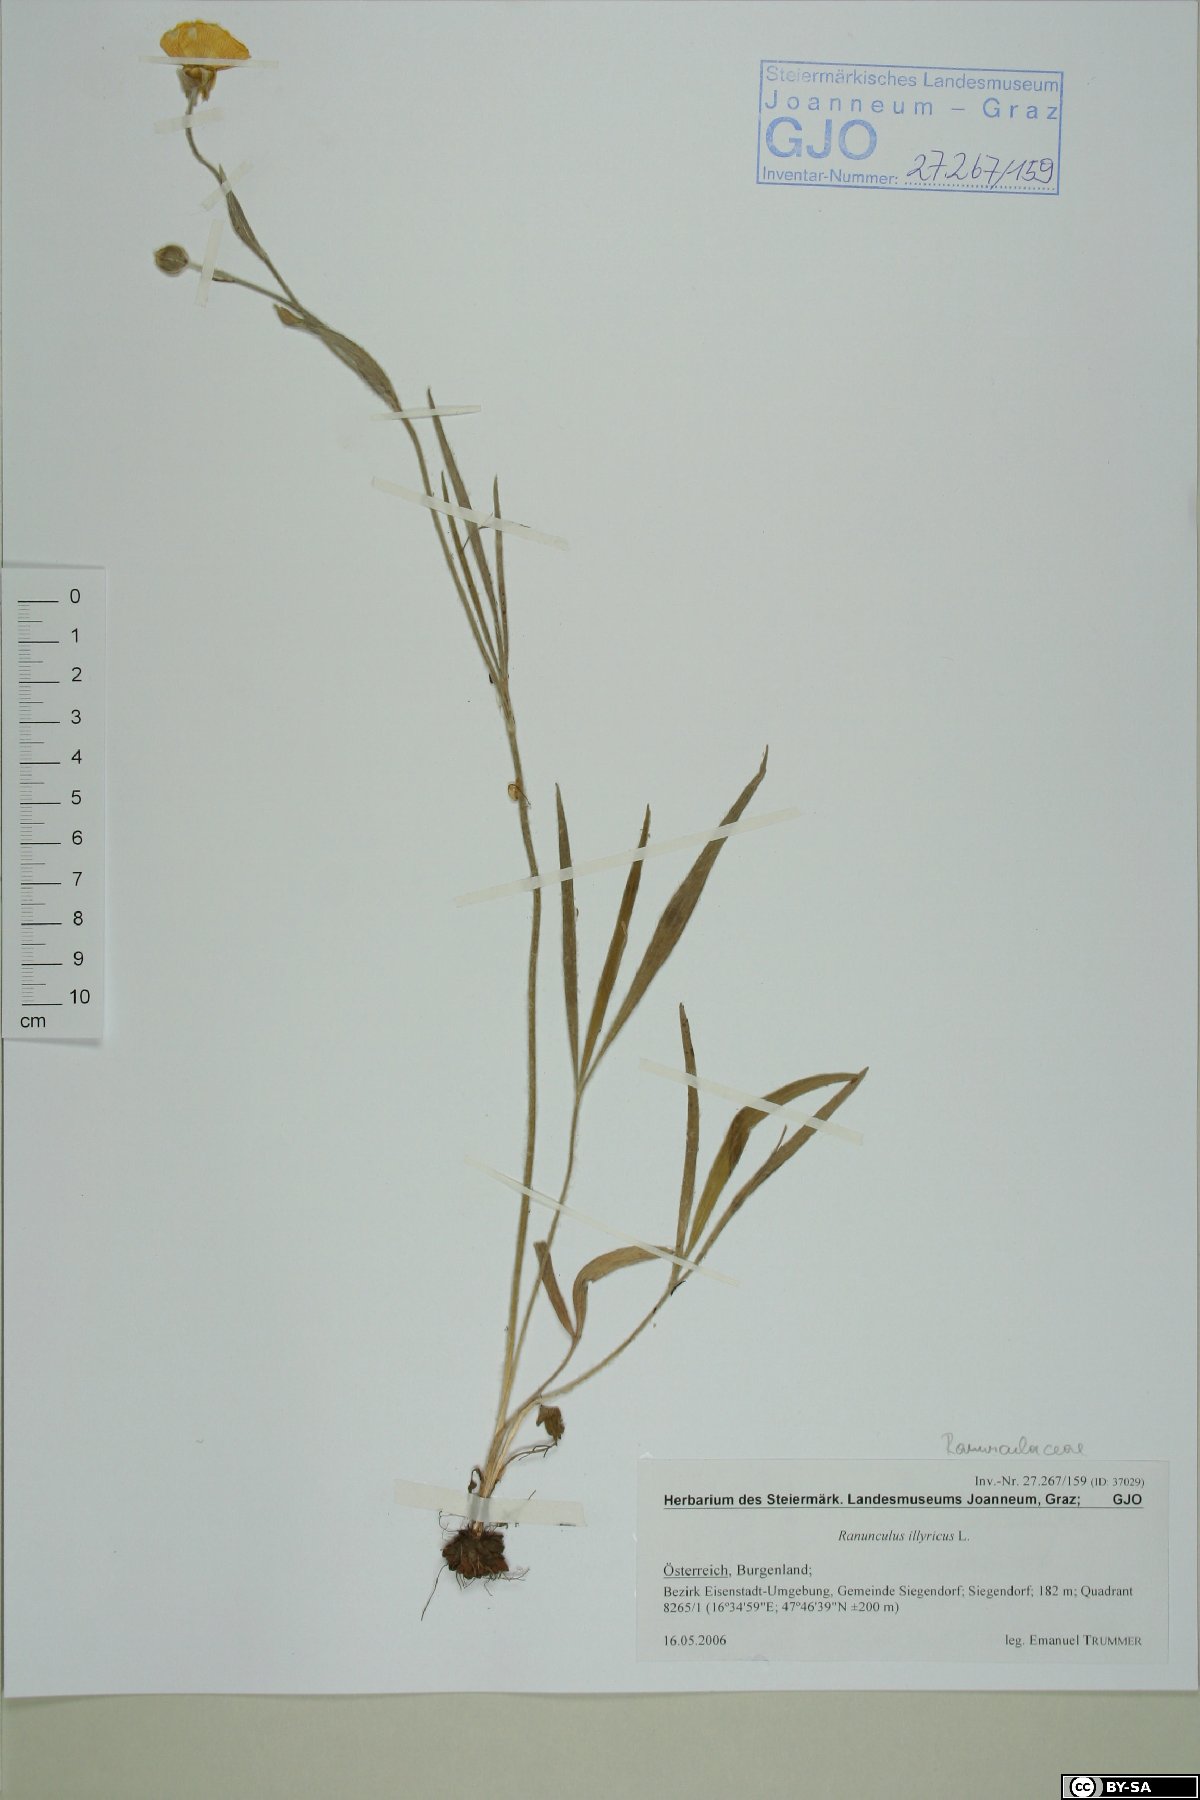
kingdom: Plantae
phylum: Tracheophyta
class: Magnoliopsida
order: Ranunculales
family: Ranunculaceae
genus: Ranunculus
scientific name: Ranunculus illyricus
